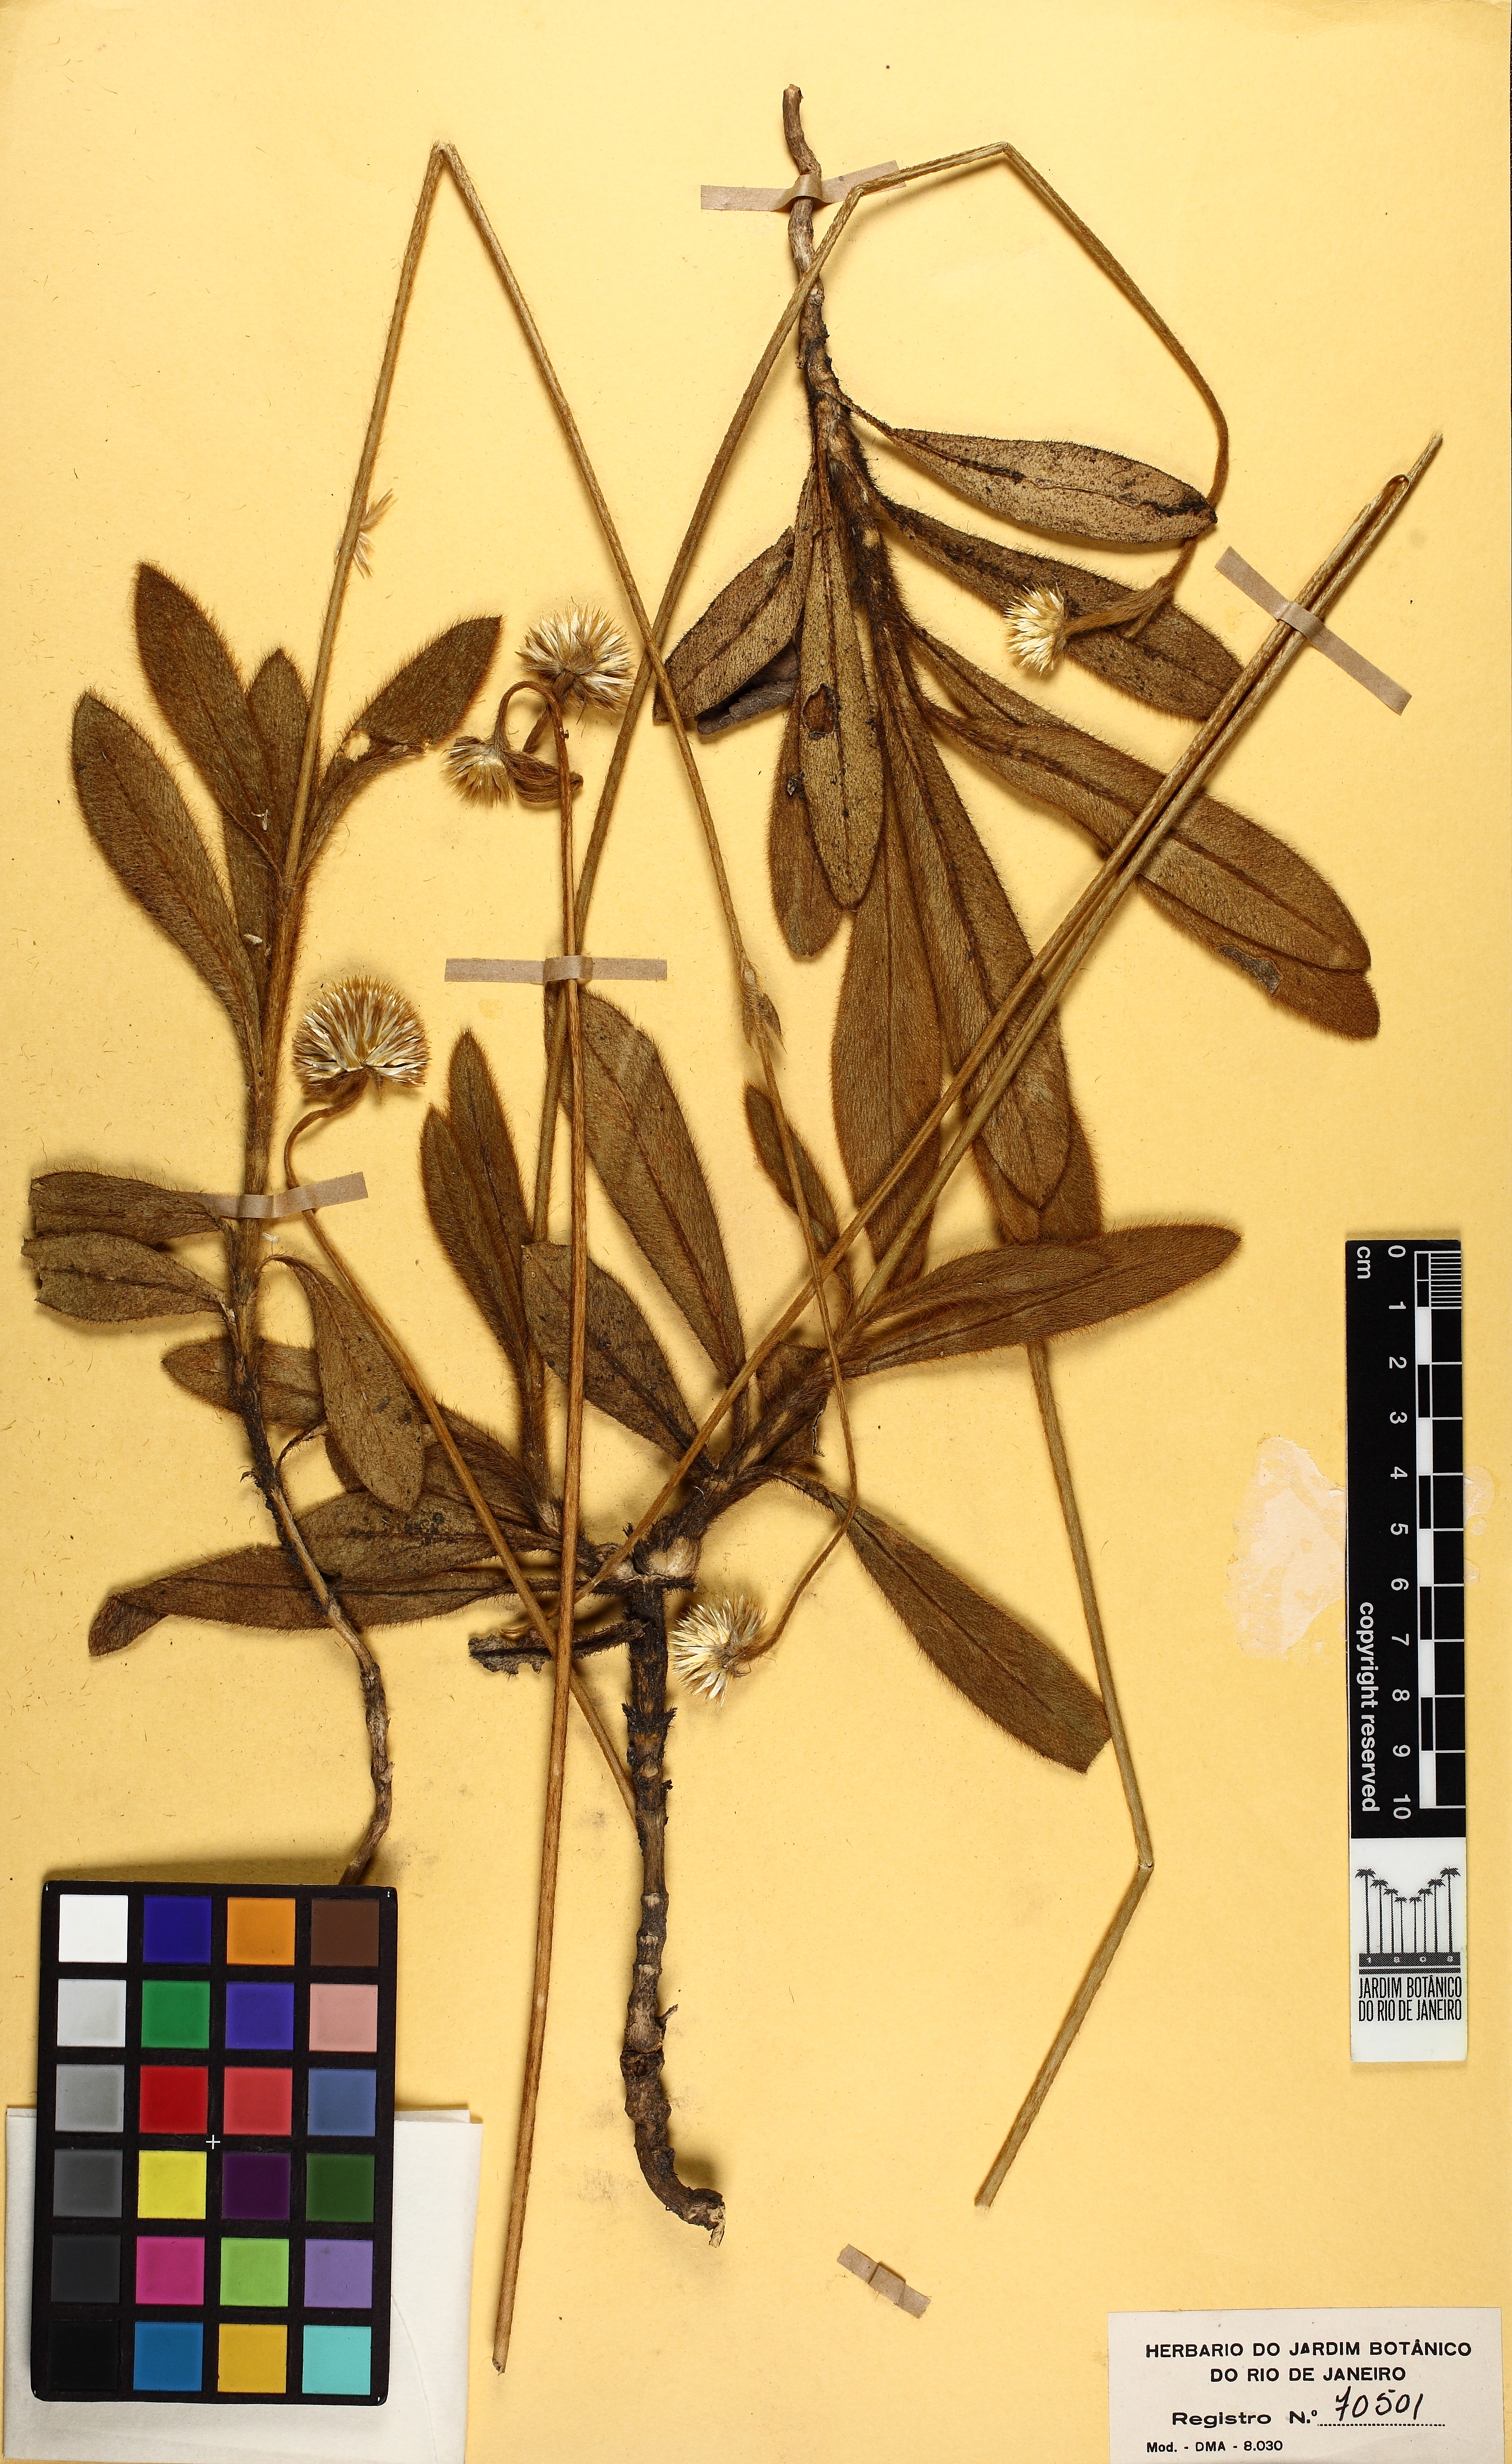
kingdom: Plantae
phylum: Tracheophyta
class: Magnoliopsida
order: Caryophyllales
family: Amaranthaceae
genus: Gomphrena
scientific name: Gomphrena tomentosa
